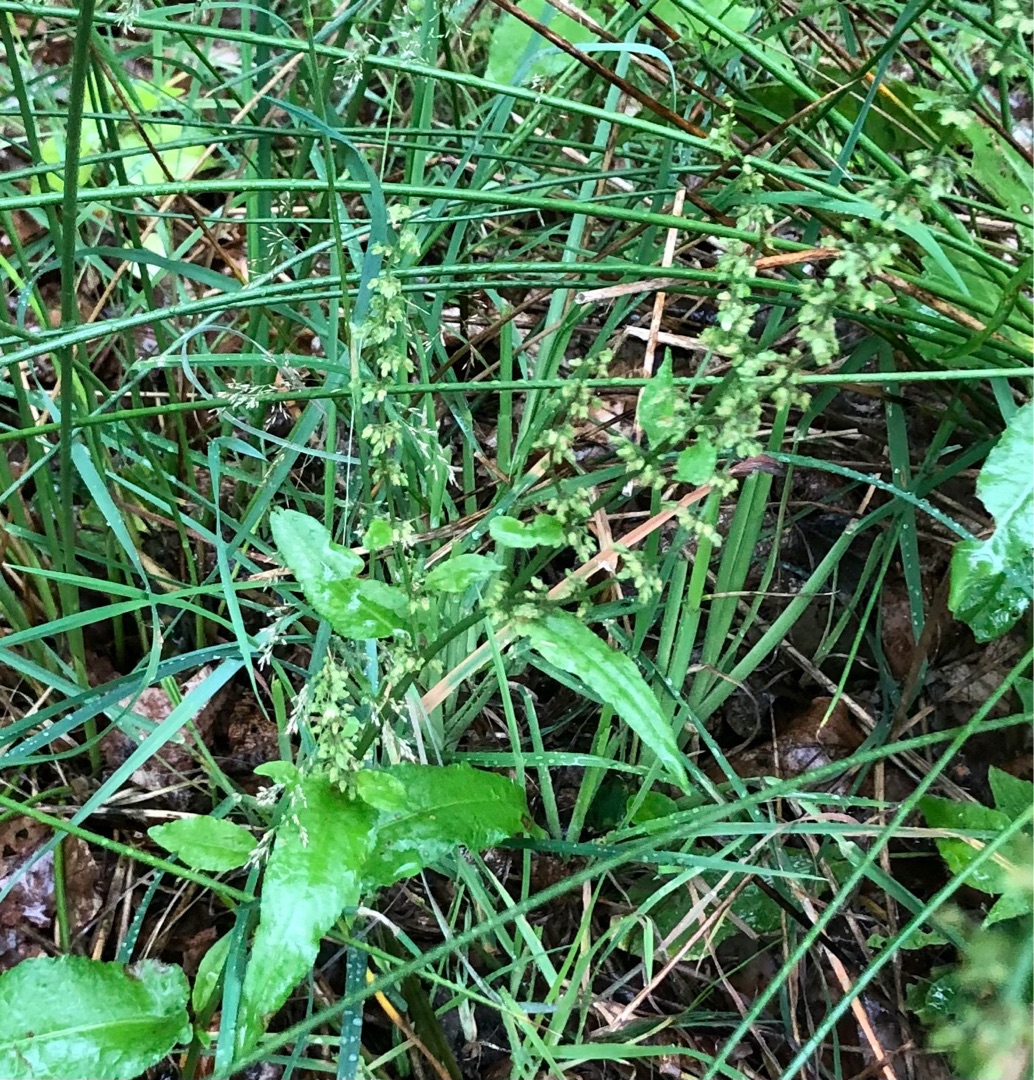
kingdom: Plantae
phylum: Tracheophyta
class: Magnoliopsida
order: Caryophyllales
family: Polygonaceae
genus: Rumex
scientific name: Rumex sanguineus
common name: Skov-skræppe
